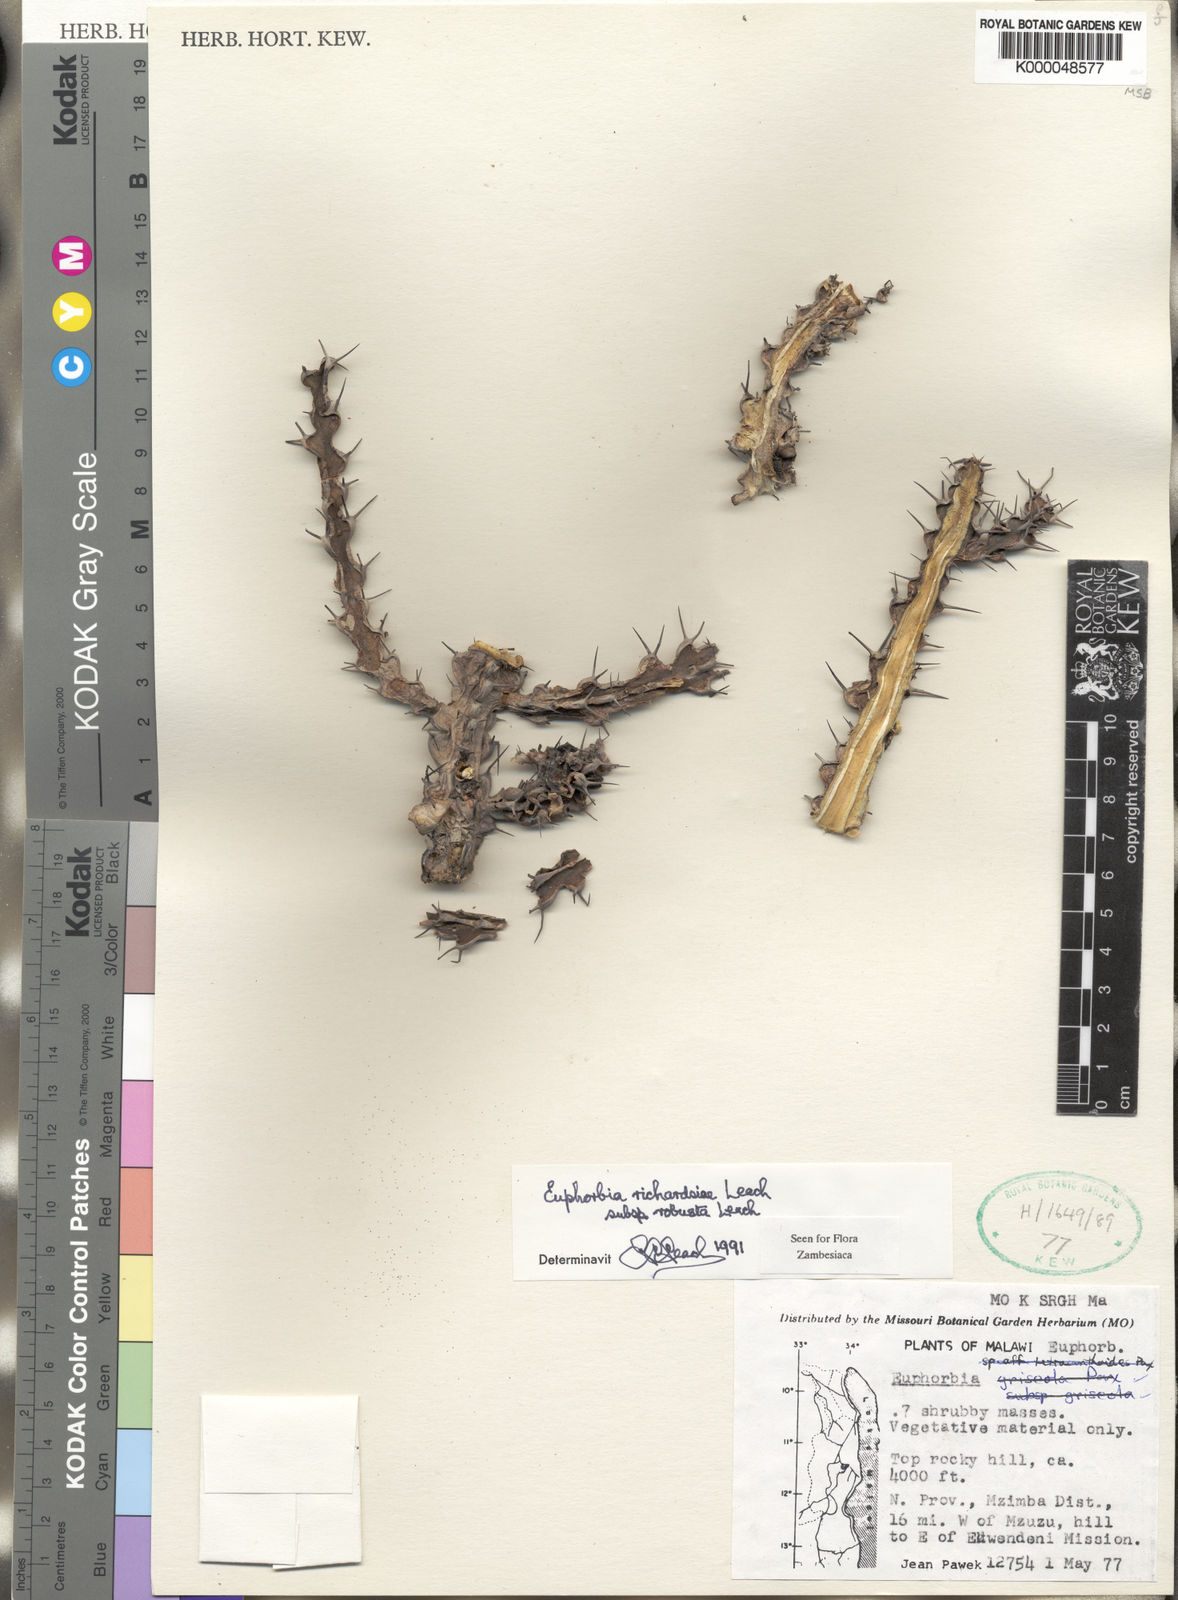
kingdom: Plantae
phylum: Tracheophyta
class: Magnoliopsida
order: Malpighiales
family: Euphorbiaceae
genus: Euphorbia
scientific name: Euphorbia richardsiae
